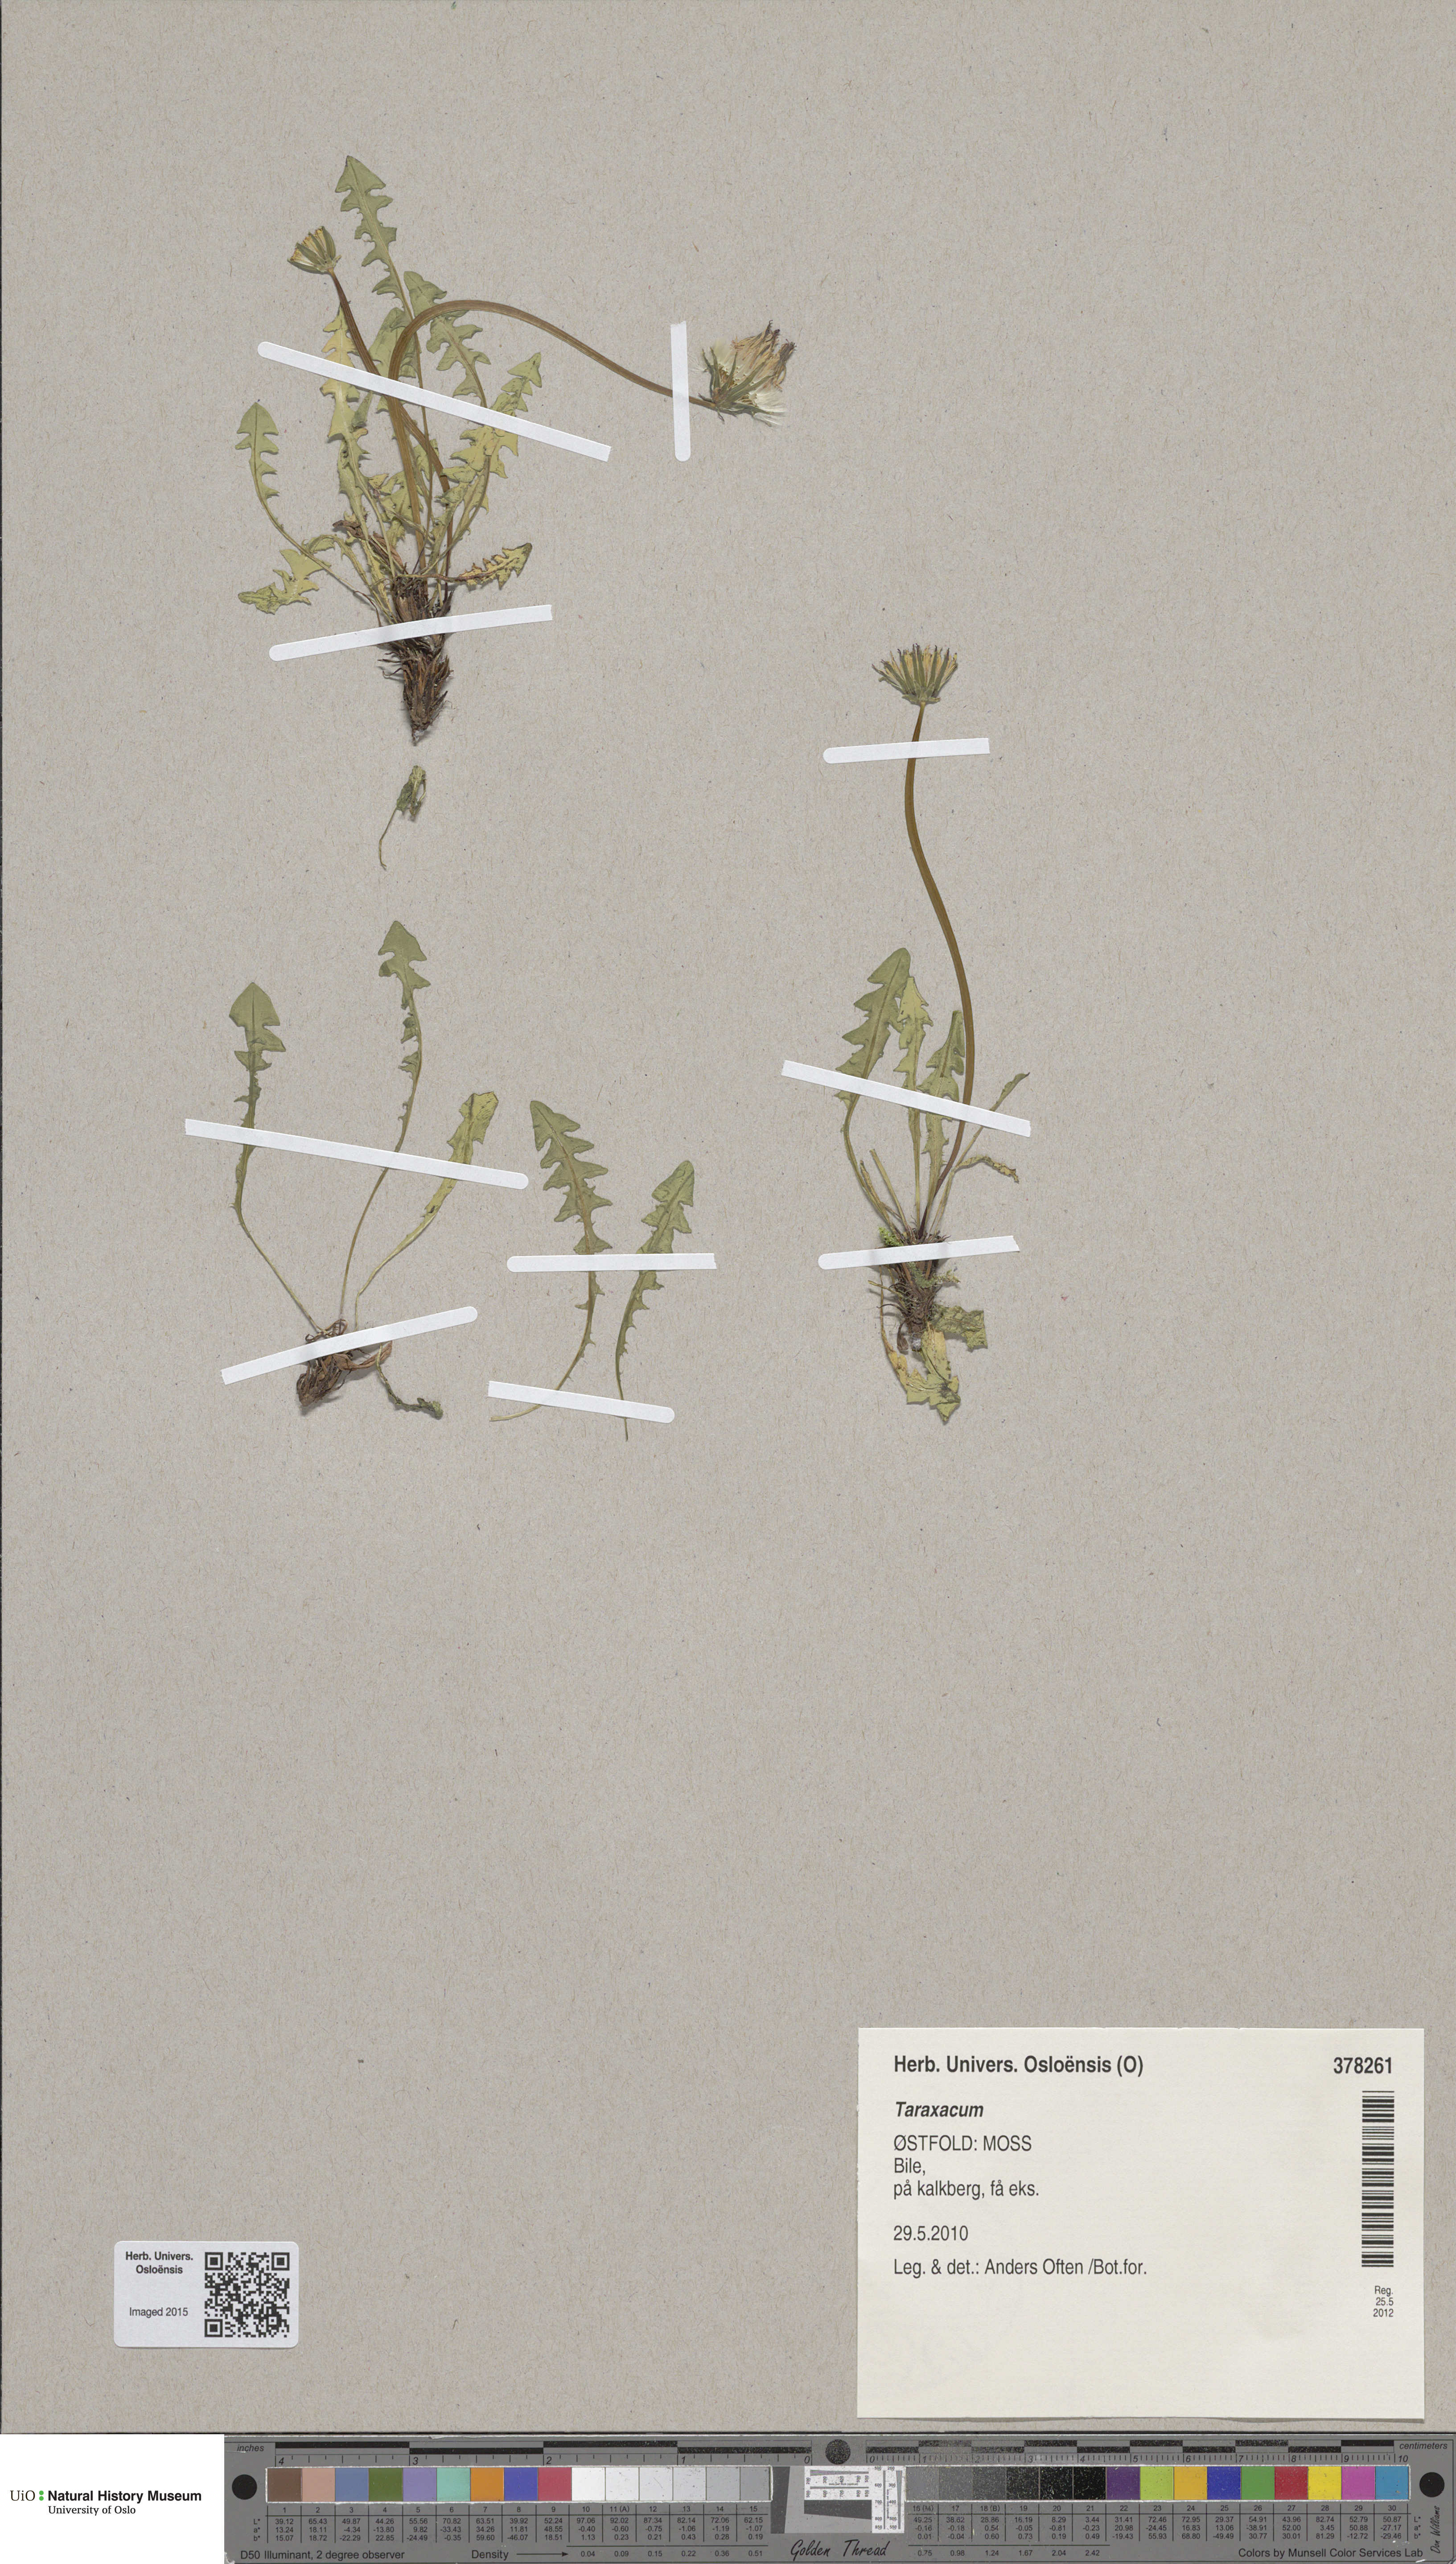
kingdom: Plantae
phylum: Tracheophyta
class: Magnoliopsida
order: Asterales
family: Asteraceae
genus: Taraxacum
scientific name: Taraxacum
